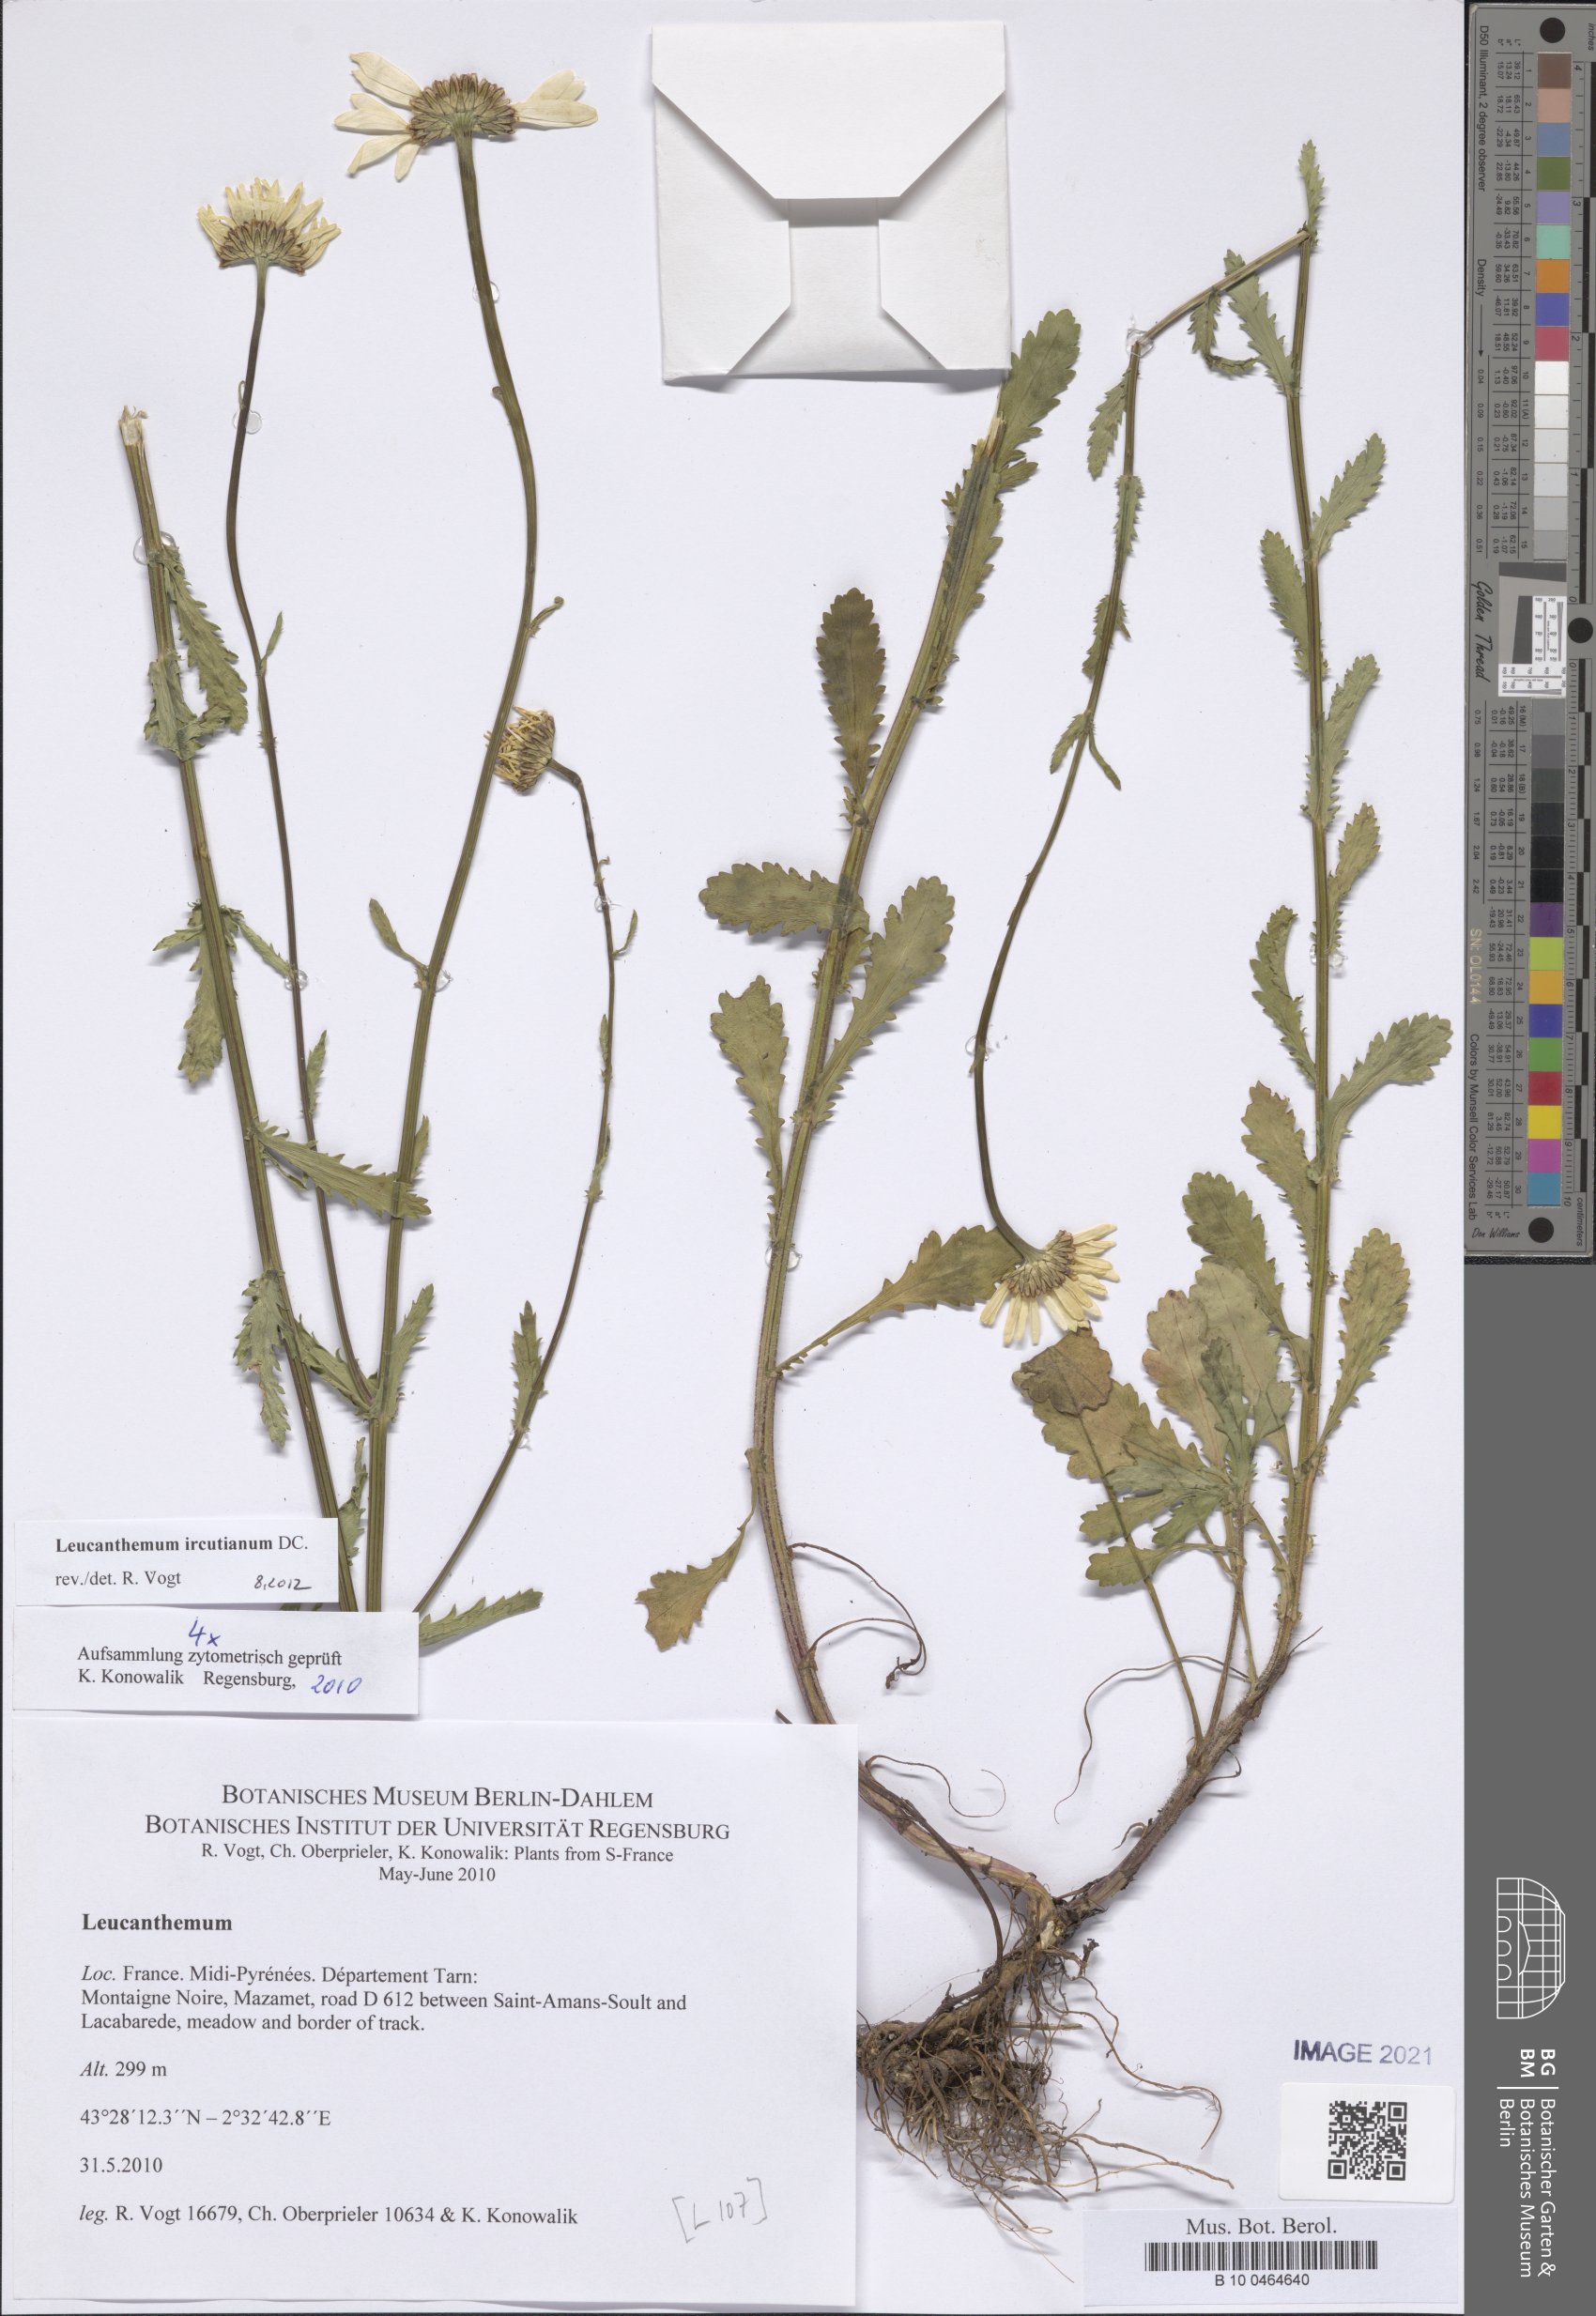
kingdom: Plantae
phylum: Tracheophyta
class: Magnoliopsida
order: Asterales
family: Asteraceae
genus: Leucanthemum
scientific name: Leucanthemum ircutianum
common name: Daisy
